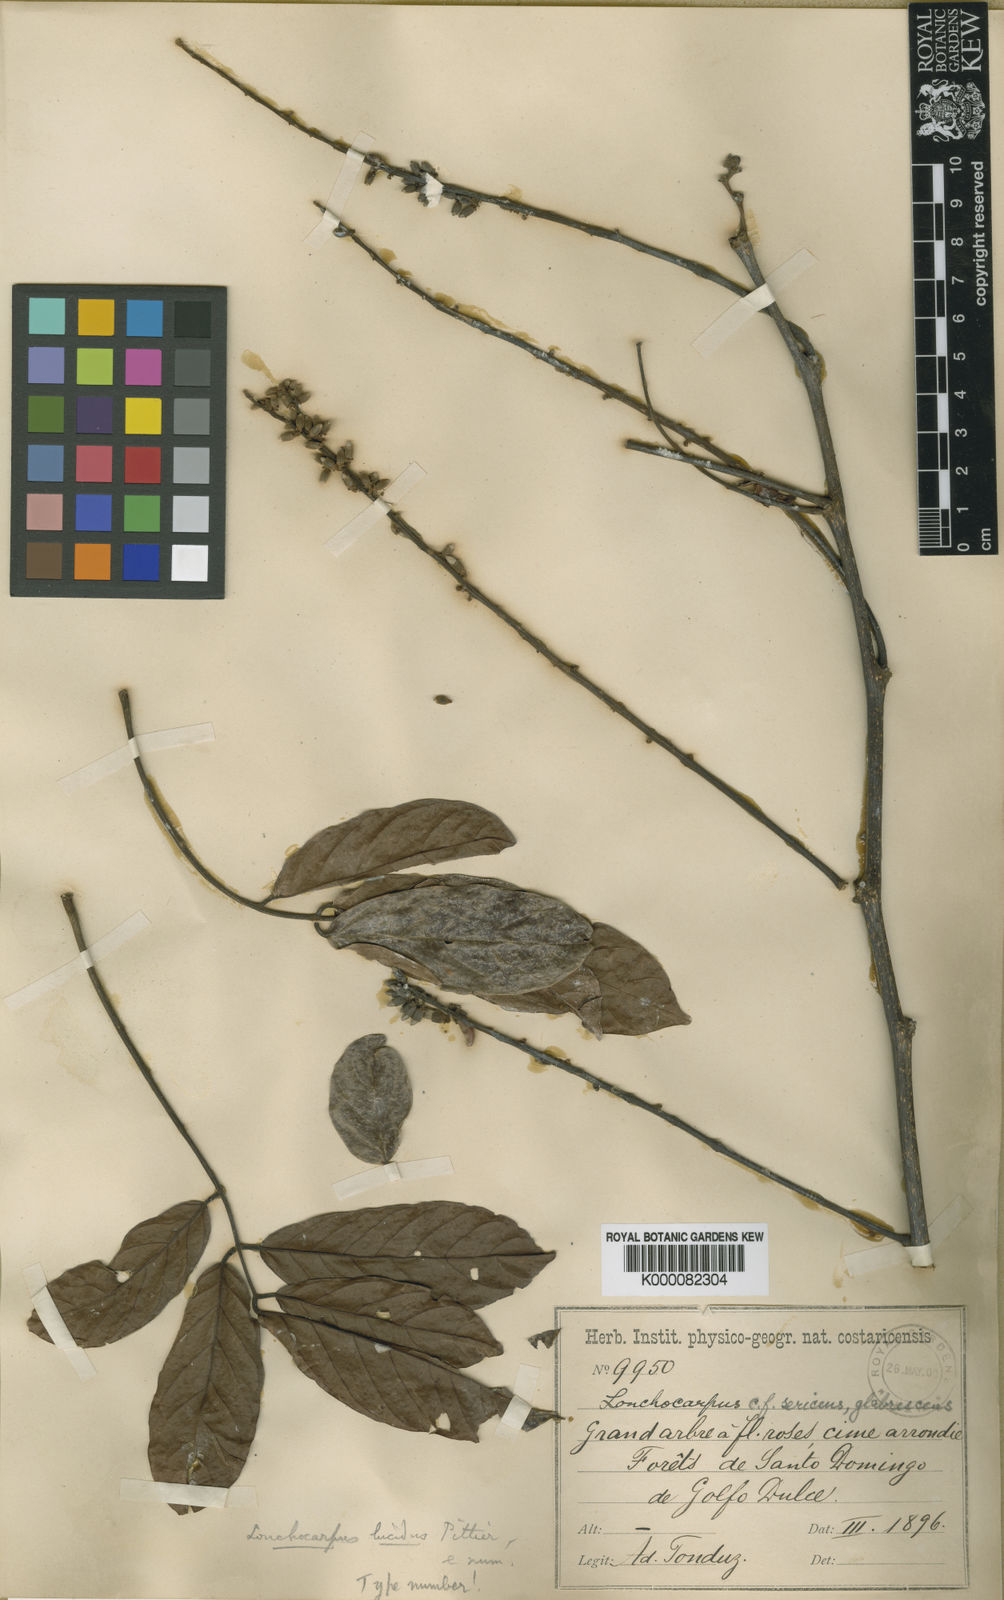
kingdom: Plantae
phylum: Tracheophyta
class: Magnoliopsida
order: Fabales
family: Fabaceae
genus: Lonchocarpus
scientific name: Lonchocarpus macrophyllus
